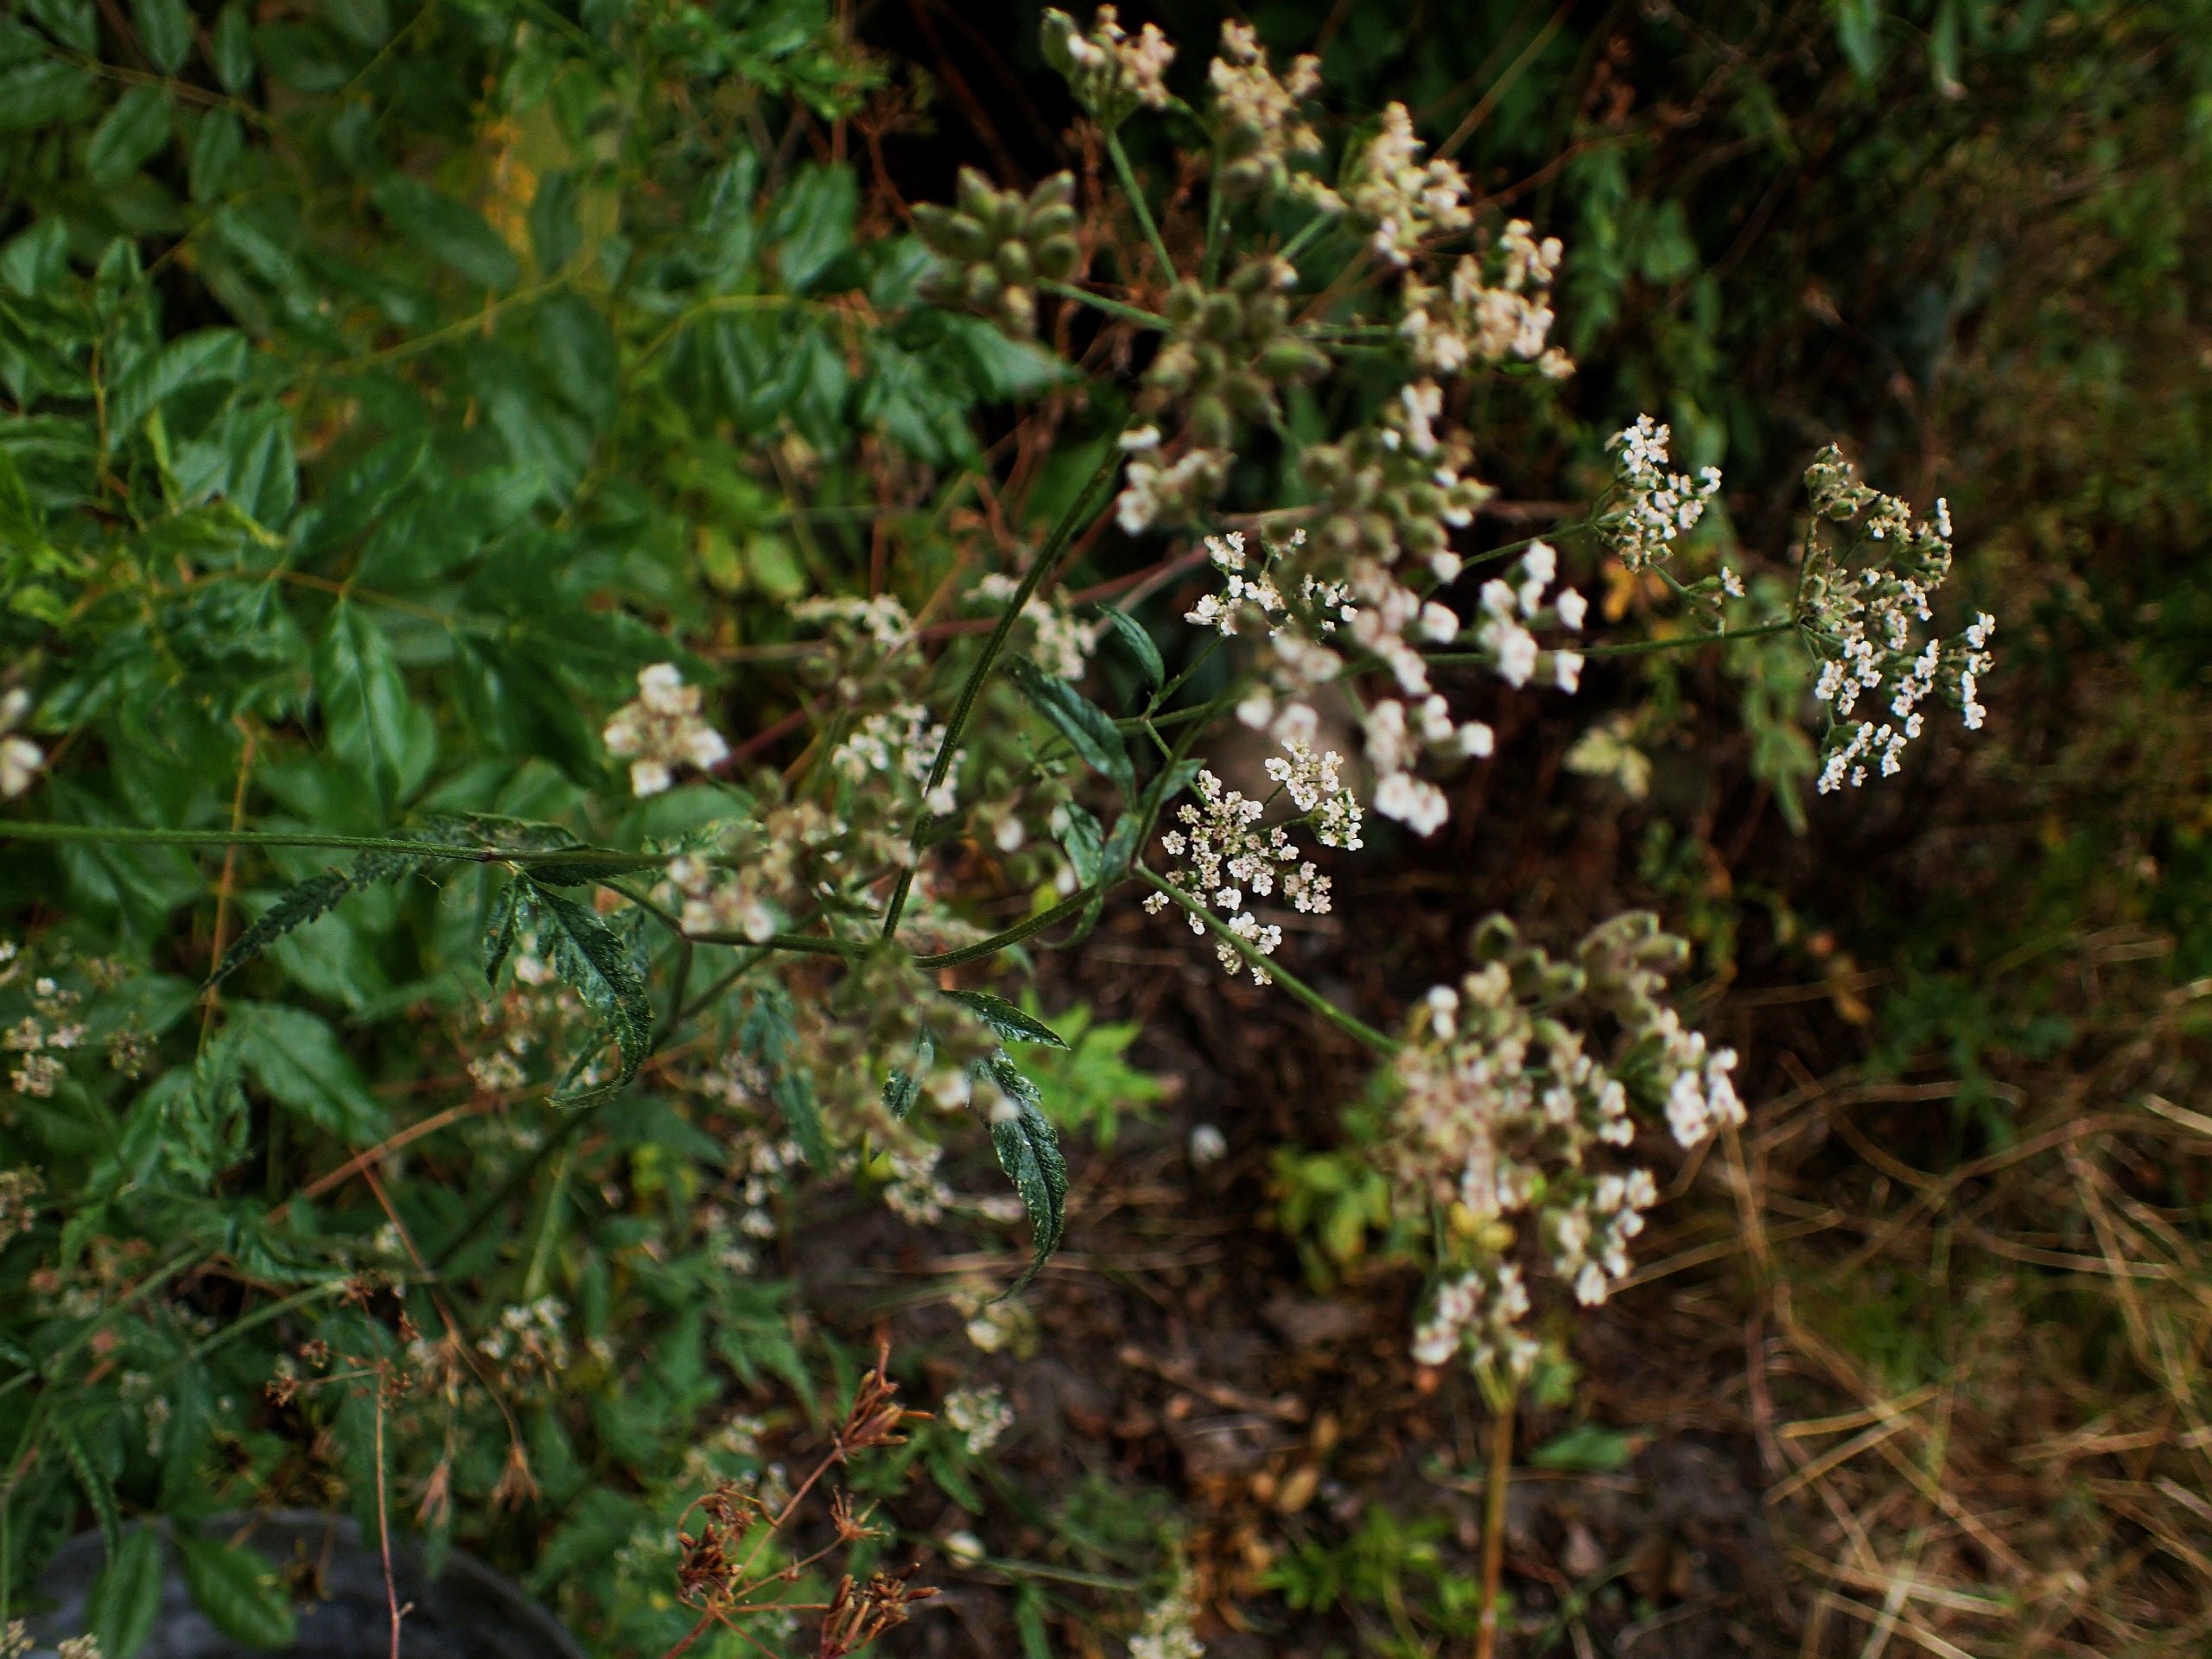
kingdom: Plantae
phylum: Tracheophyta
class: Magnoliopsida
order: Apiales
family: Apiaceae
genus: Torilis
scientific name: Torilis japonica
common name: Hvas randfrø
